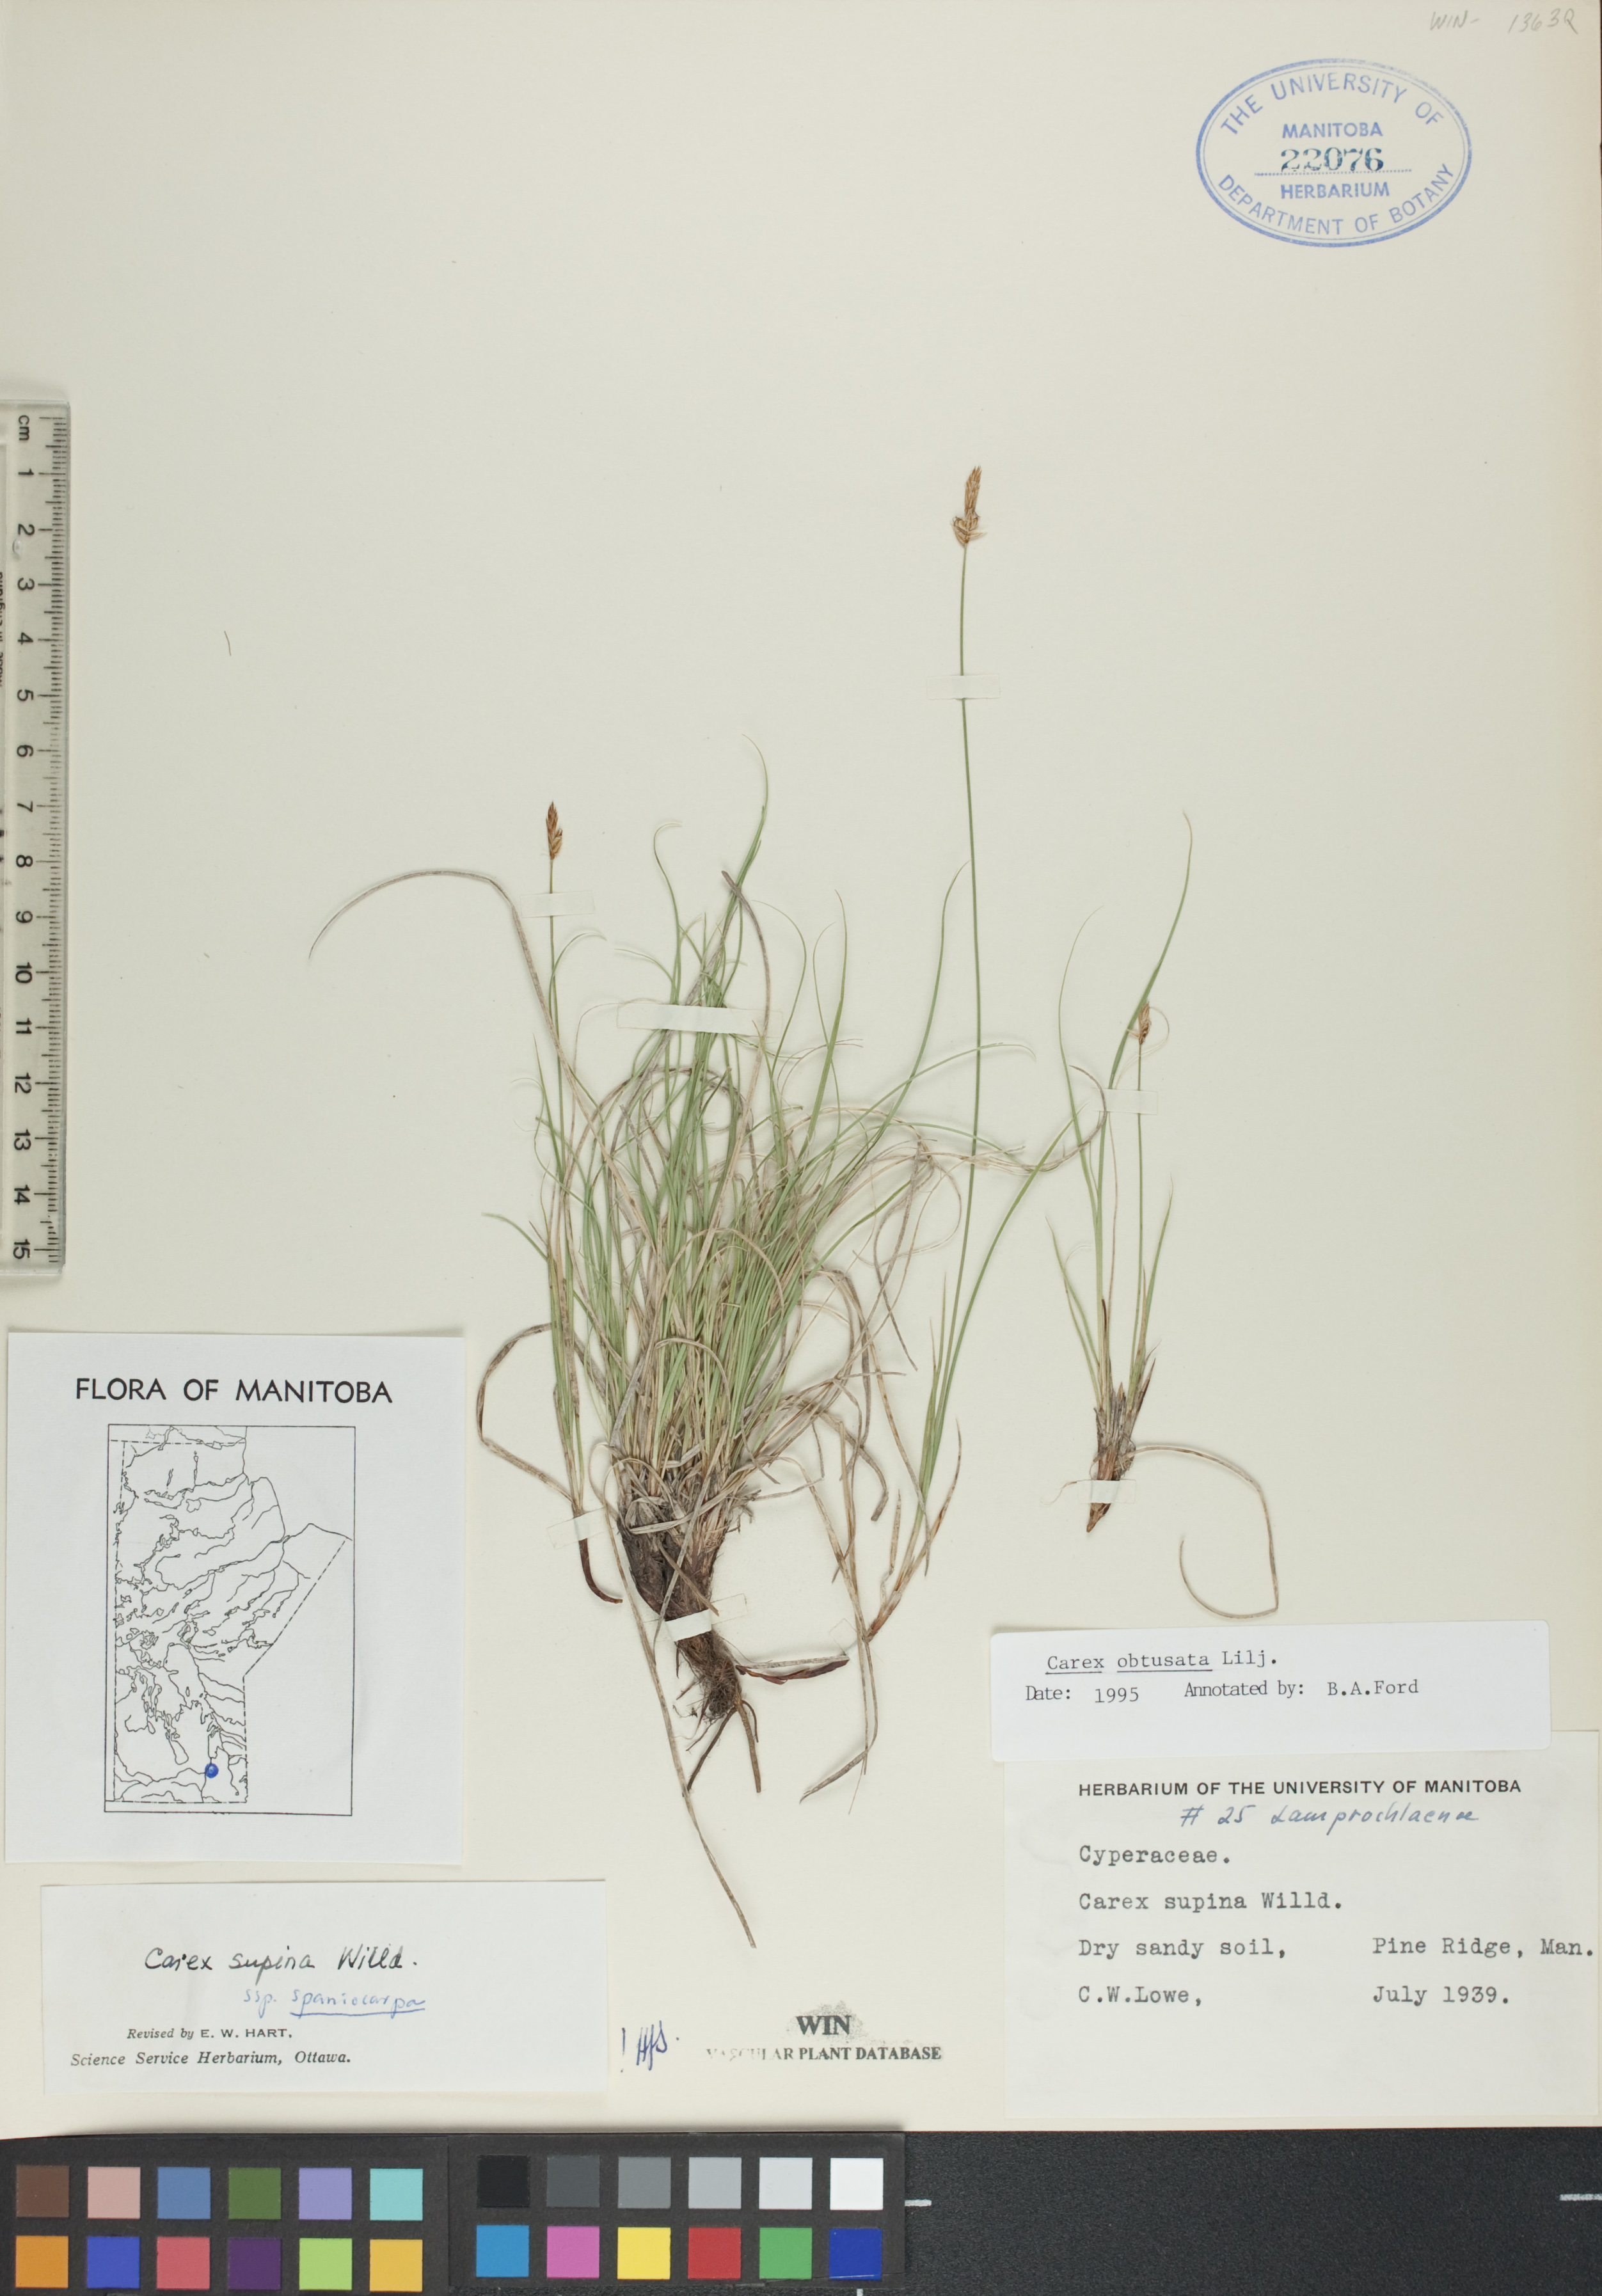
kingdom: Plantae
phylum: Tracheophyta
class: Liliopsida
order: Poales
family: Cyperaceae
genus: Carex
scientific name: Carex obtusata
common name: Blunt sedge
